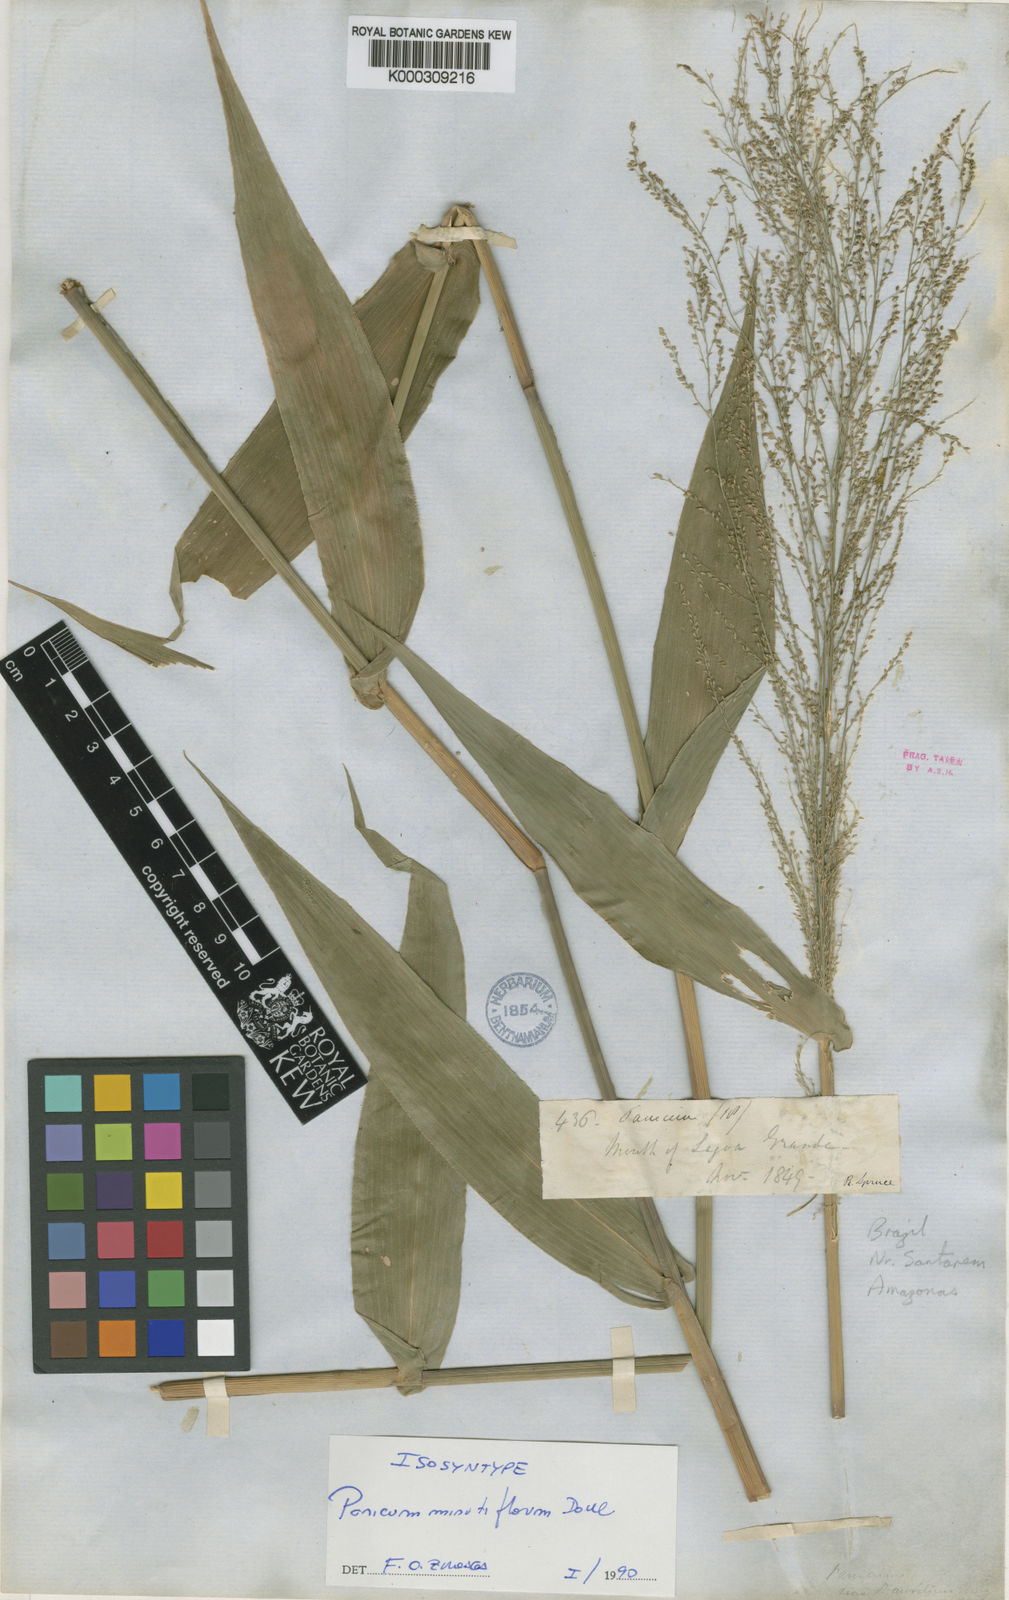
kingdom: Plantae
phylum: Tracheophyta
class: Liliopsida
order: Poales
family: Poaceae
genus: Rugoloa
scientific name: Rugoloa hylaeica
